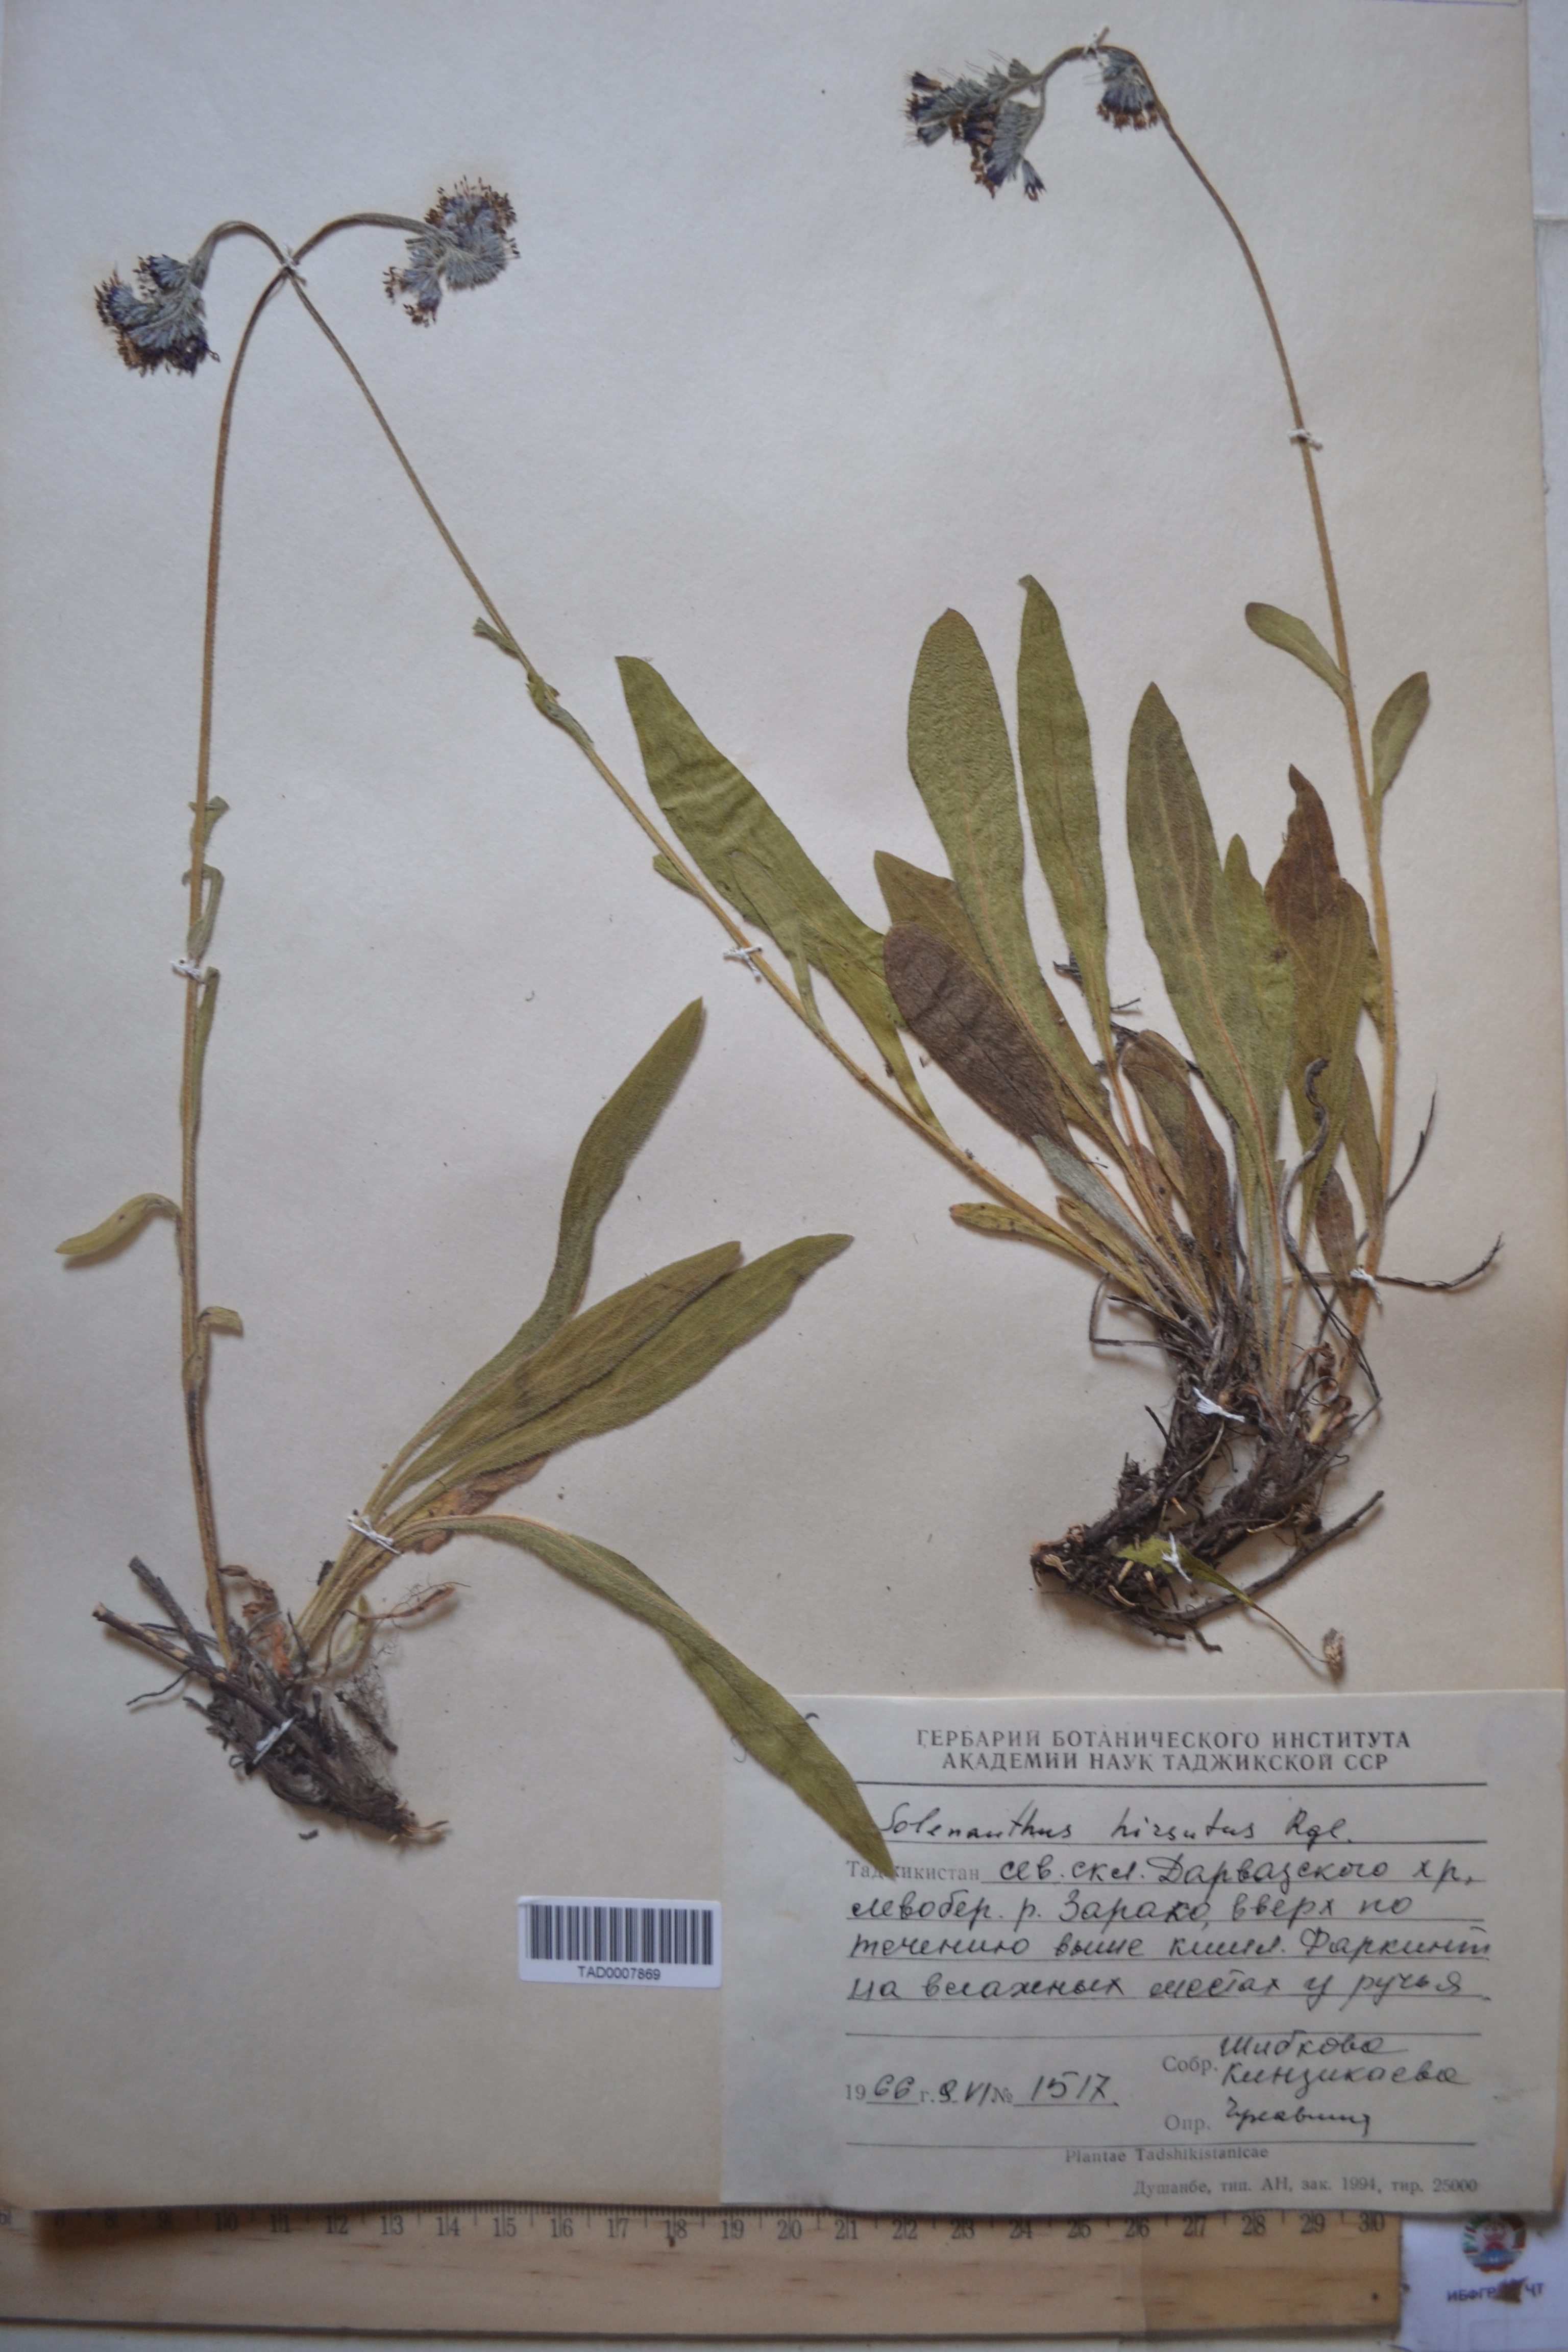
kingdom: Plantae
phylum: Tracheophyta
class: Magnoliopsida
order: Boraginales
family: Boraginaceae
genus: Solenanthus
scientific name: Solenanthus hirsutus
